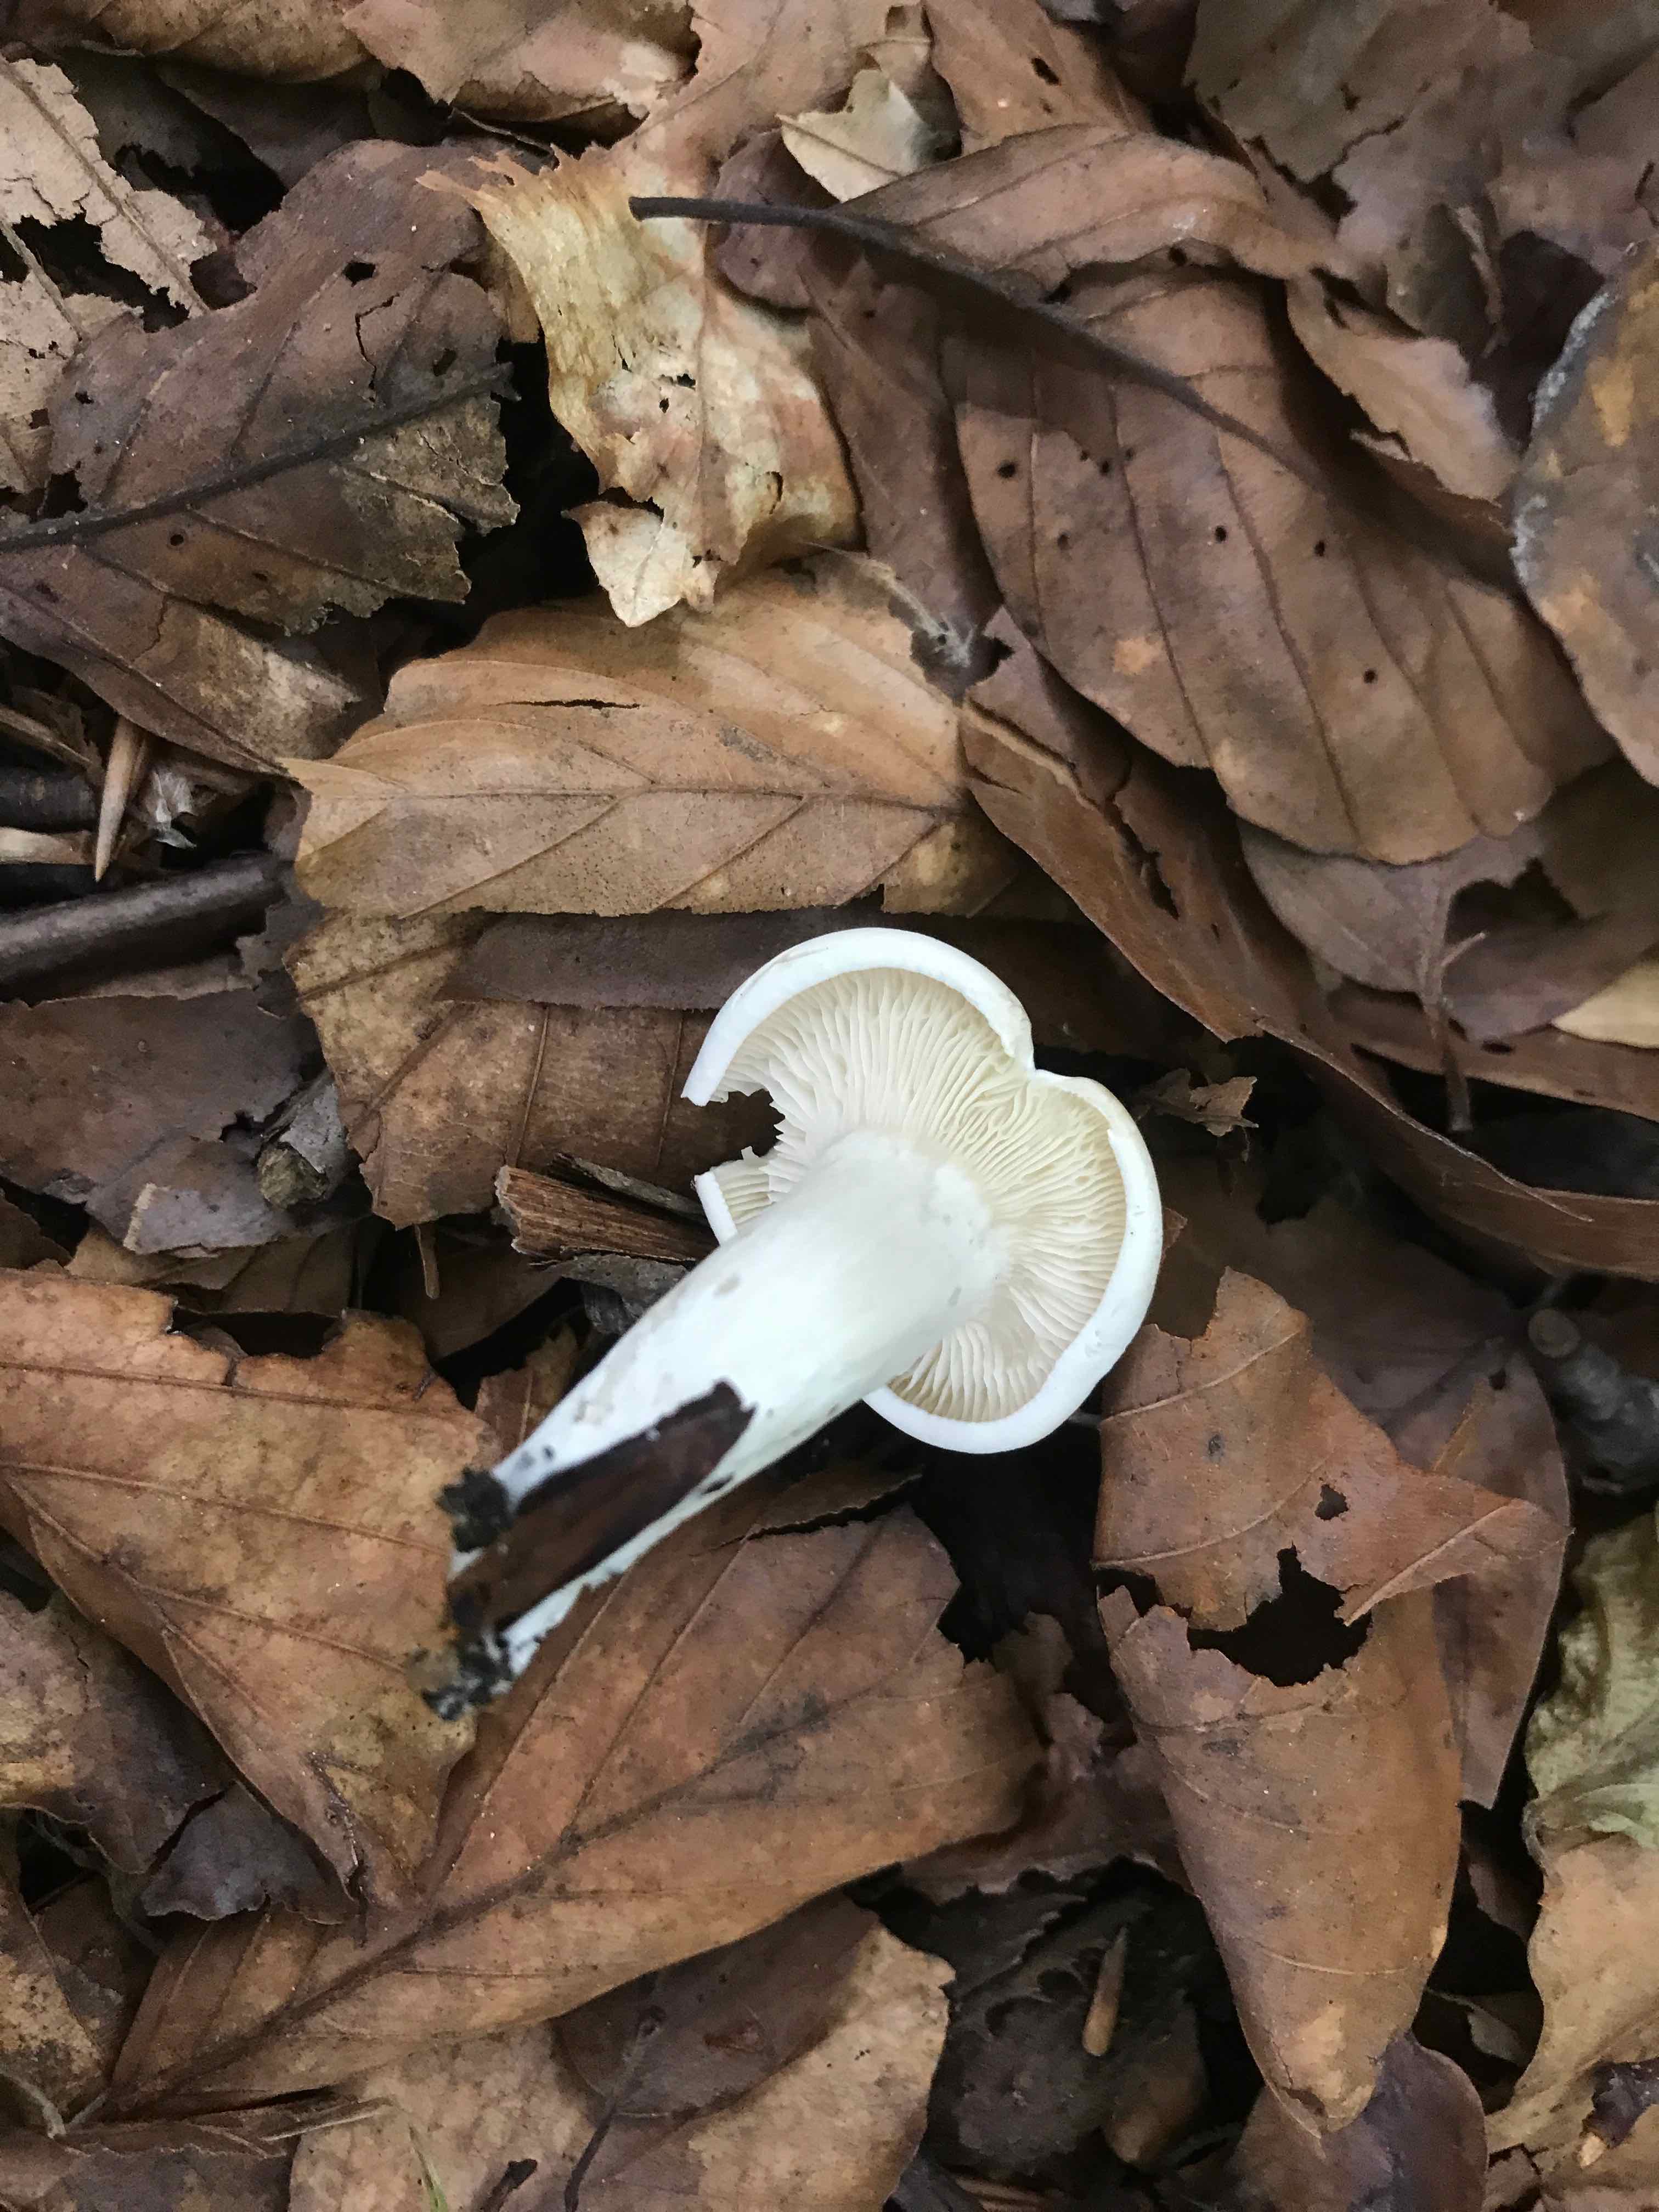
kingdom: Fungi
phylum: Basidiomycota
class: Agaricomycetes
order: Agaricales
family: Entolomataceae
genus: Clitopilus
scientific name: Clitopilus prunulus
